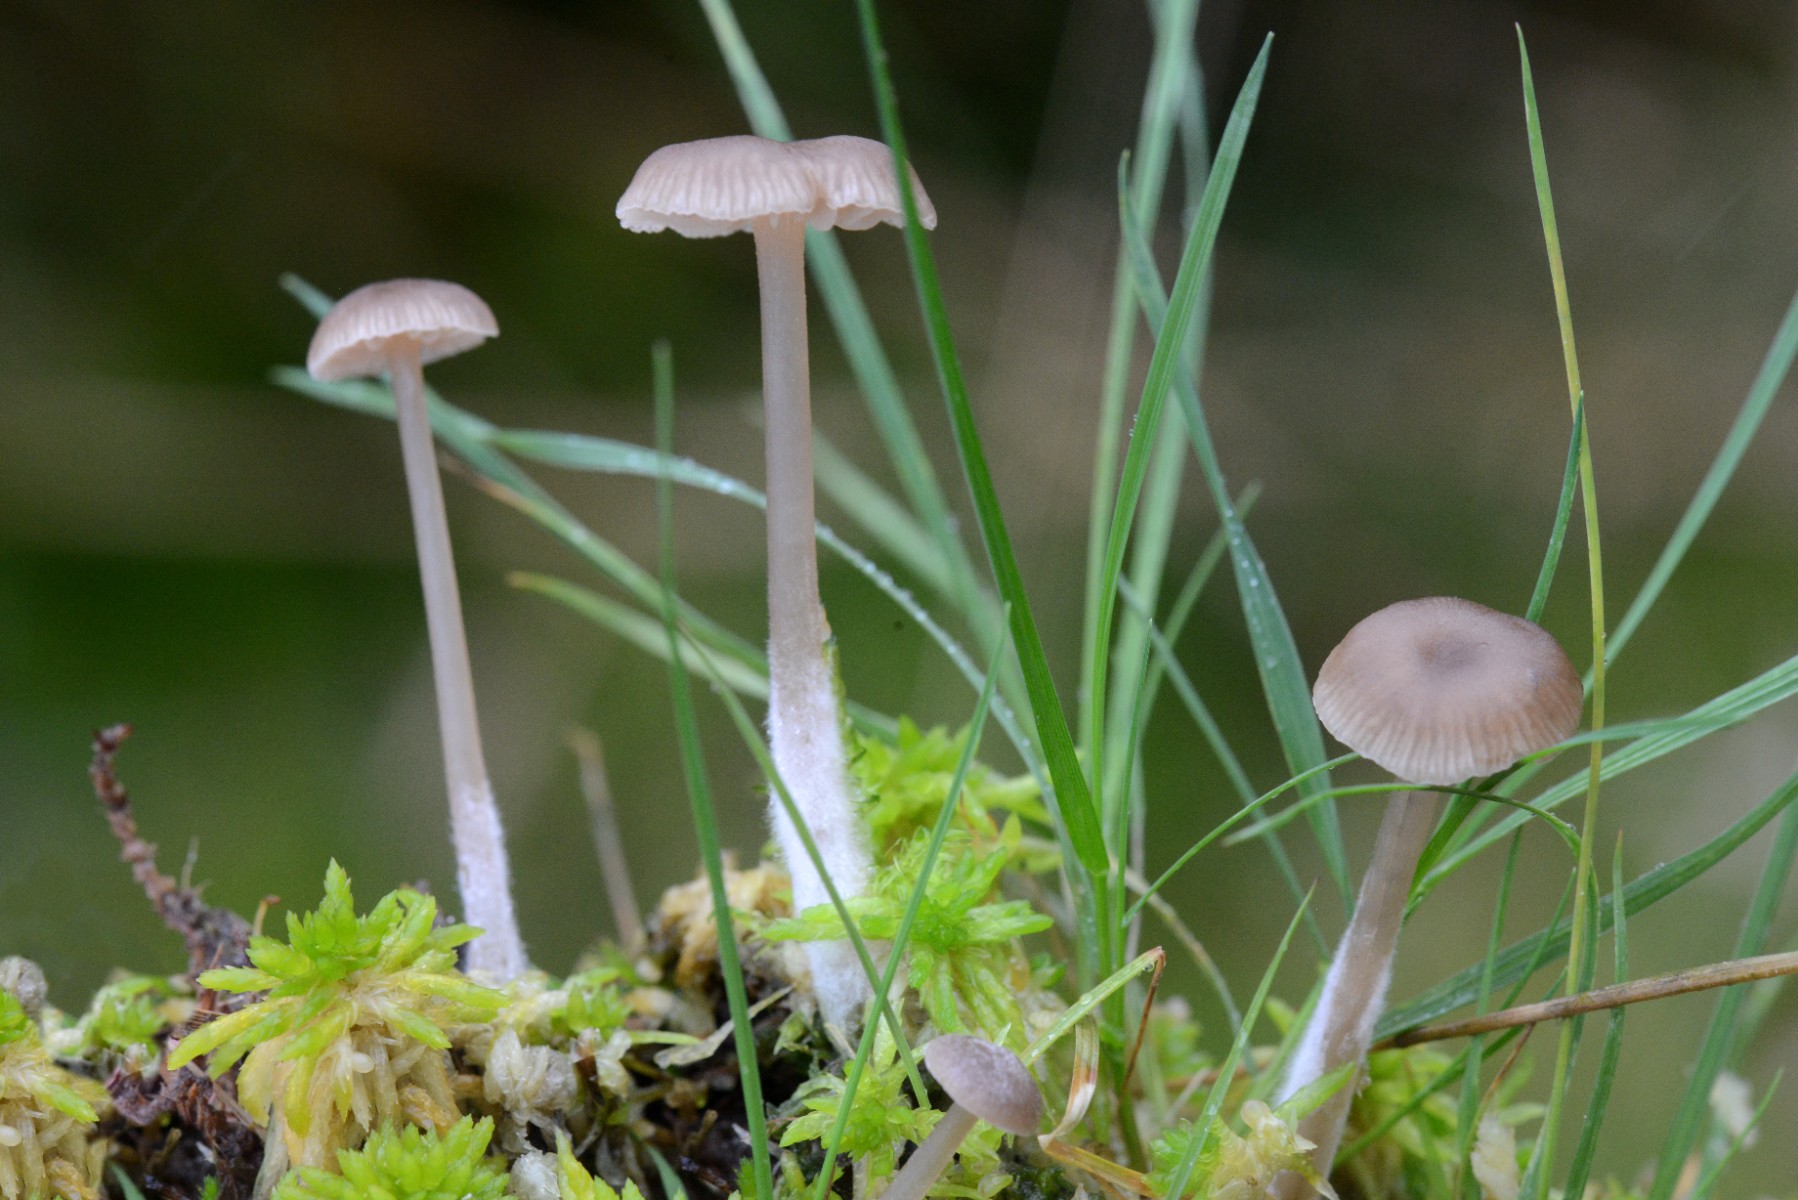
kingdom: Fungi
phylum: Basidiomycota
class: Agaricomycetes
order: Agaricales
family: Lyophyllaceae
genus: Sphagnurus
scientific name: Sphagnurus paluster
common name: tørvemos-gråblad
